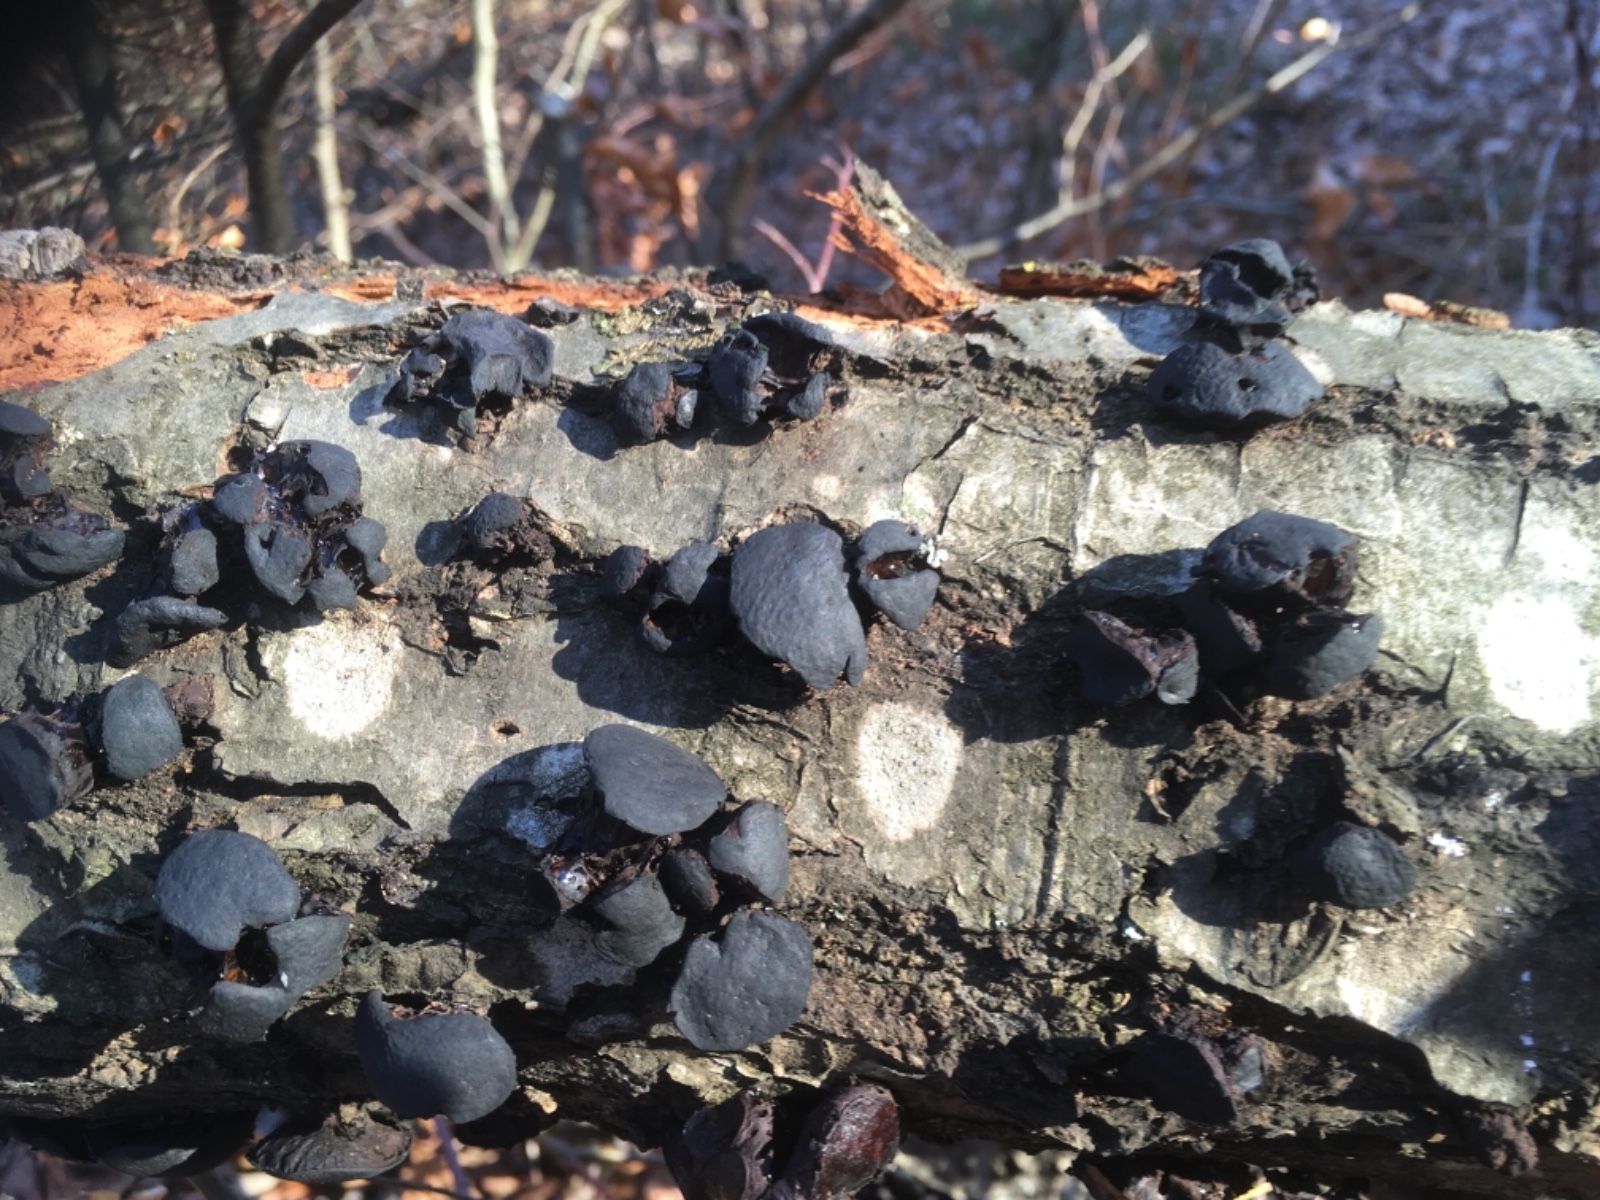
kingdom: Fungi
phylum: Ascomycota
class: Leotiomycetes
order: Phacidiales
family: Phacidiaceae
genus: Bulgaria
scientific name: Bulgaria inquinans
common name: afsmittende topsvamp
